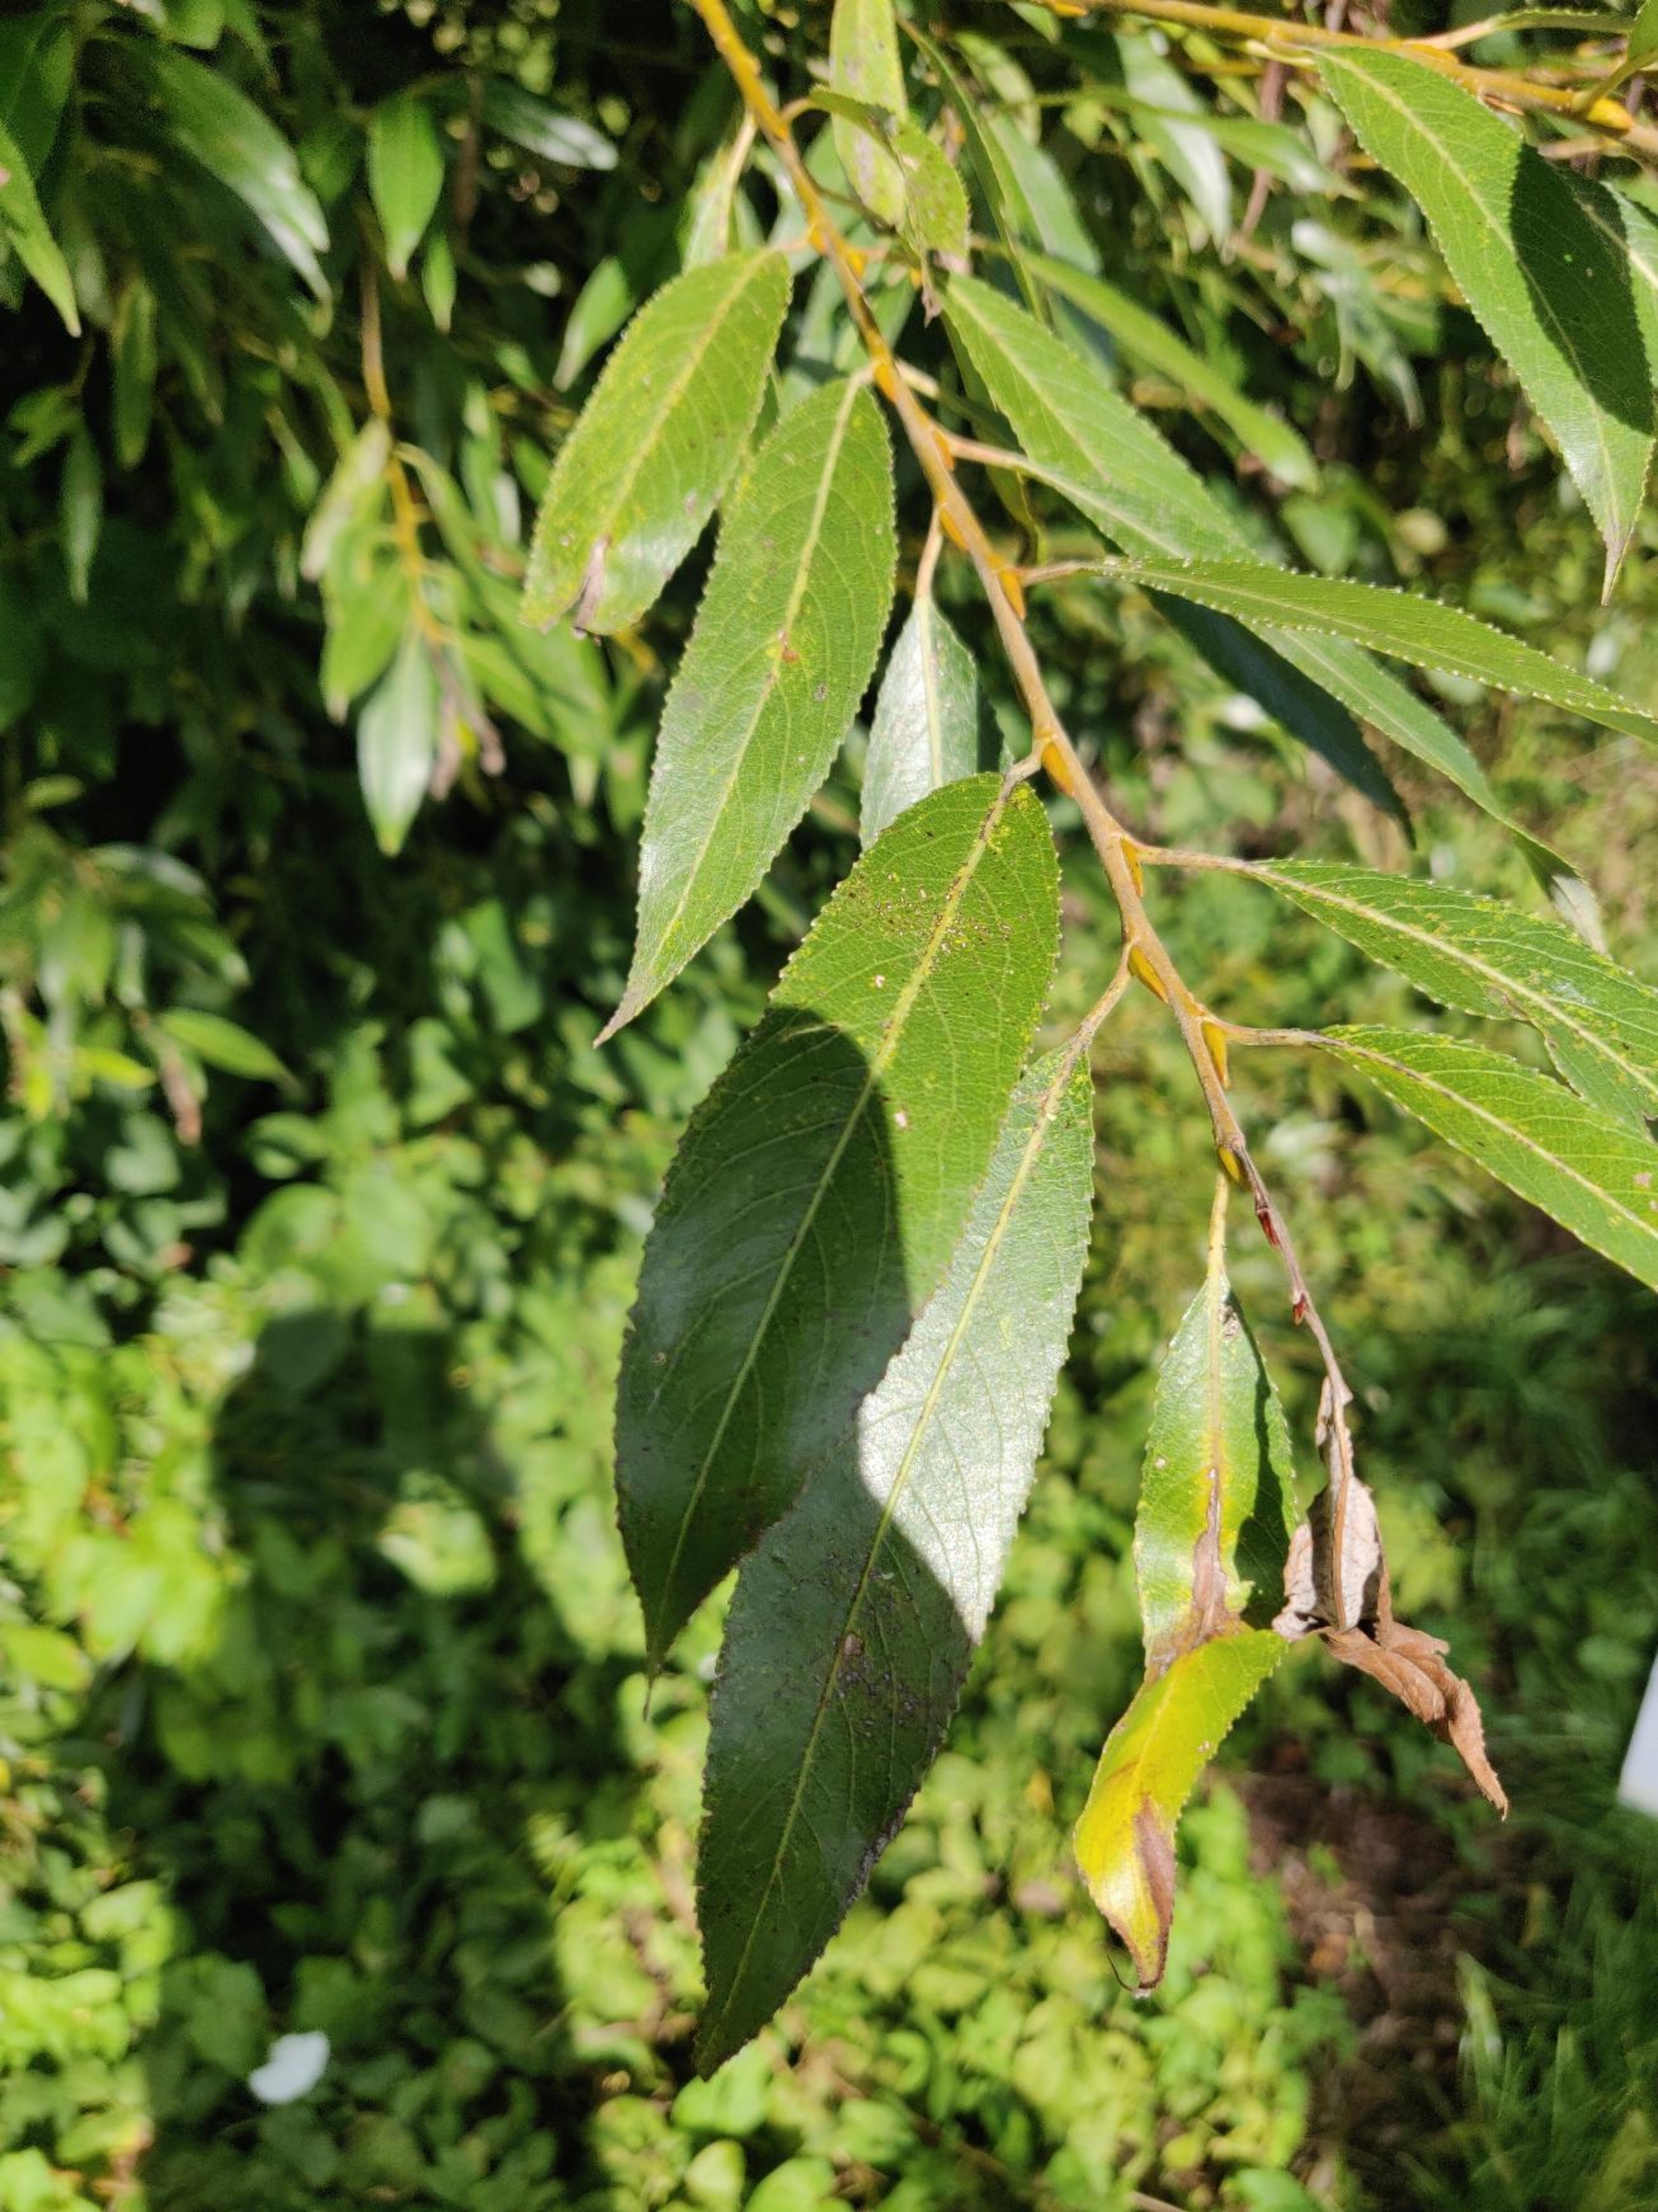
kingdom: Plantae
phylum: Tracheophyta
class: Magnoliopsida
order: Malpighiales
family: Salicaceae
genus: Salix
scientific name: Salix alba
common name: Skør-pil
